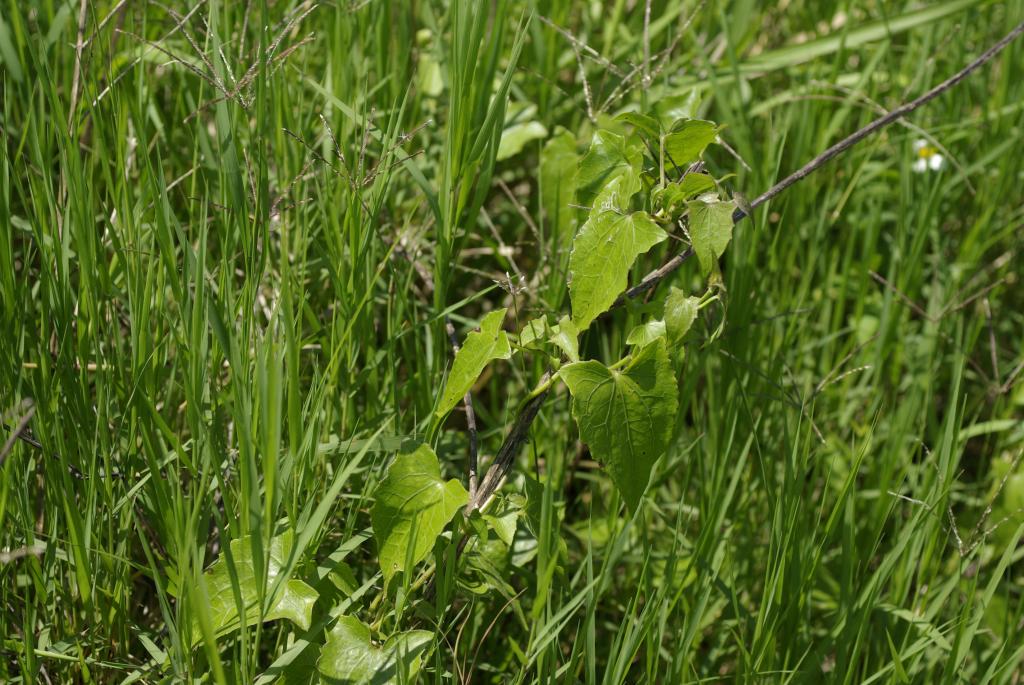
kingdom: Plantae
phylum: Tracheophyta
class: Magnoliopsida
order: Asterales
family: Asteraceae
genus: Mikania
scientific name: Mikania micrantha
